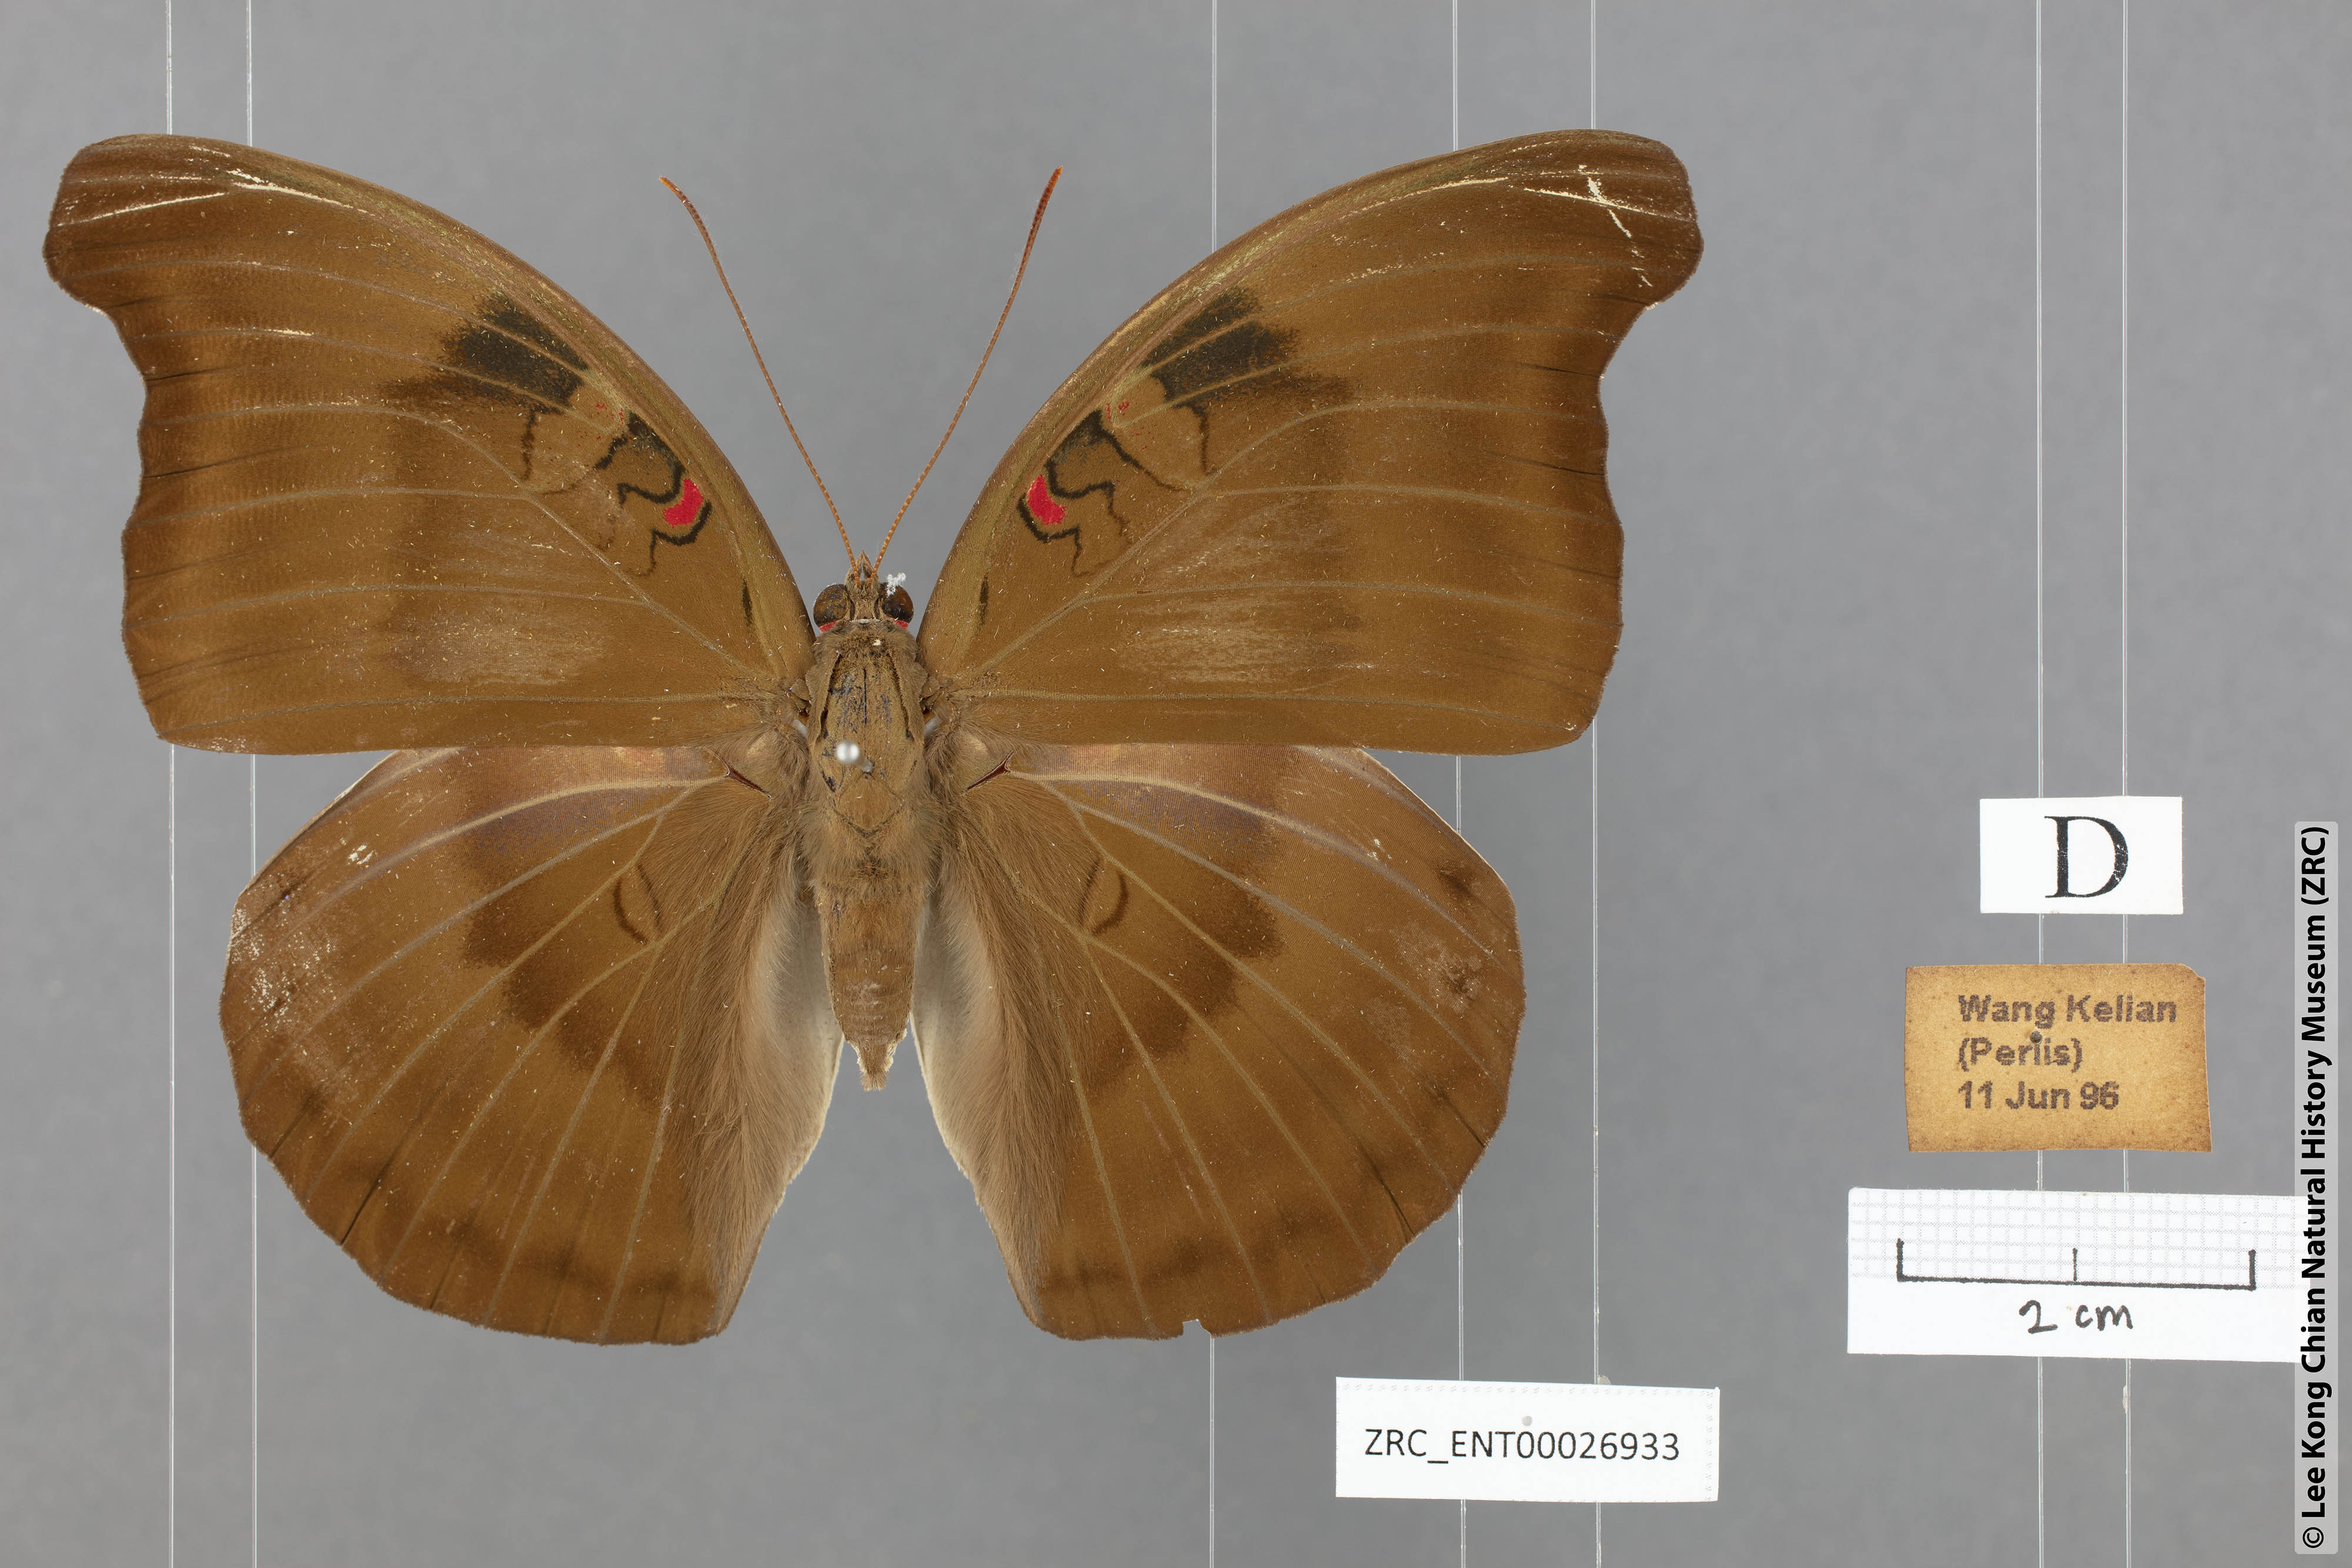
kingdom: Animalia
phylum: Arthropoda
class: Insecta
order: Lepidoptera
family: Nymphalidae
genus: Euthalia
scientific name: Euthalia Dophla evelina
